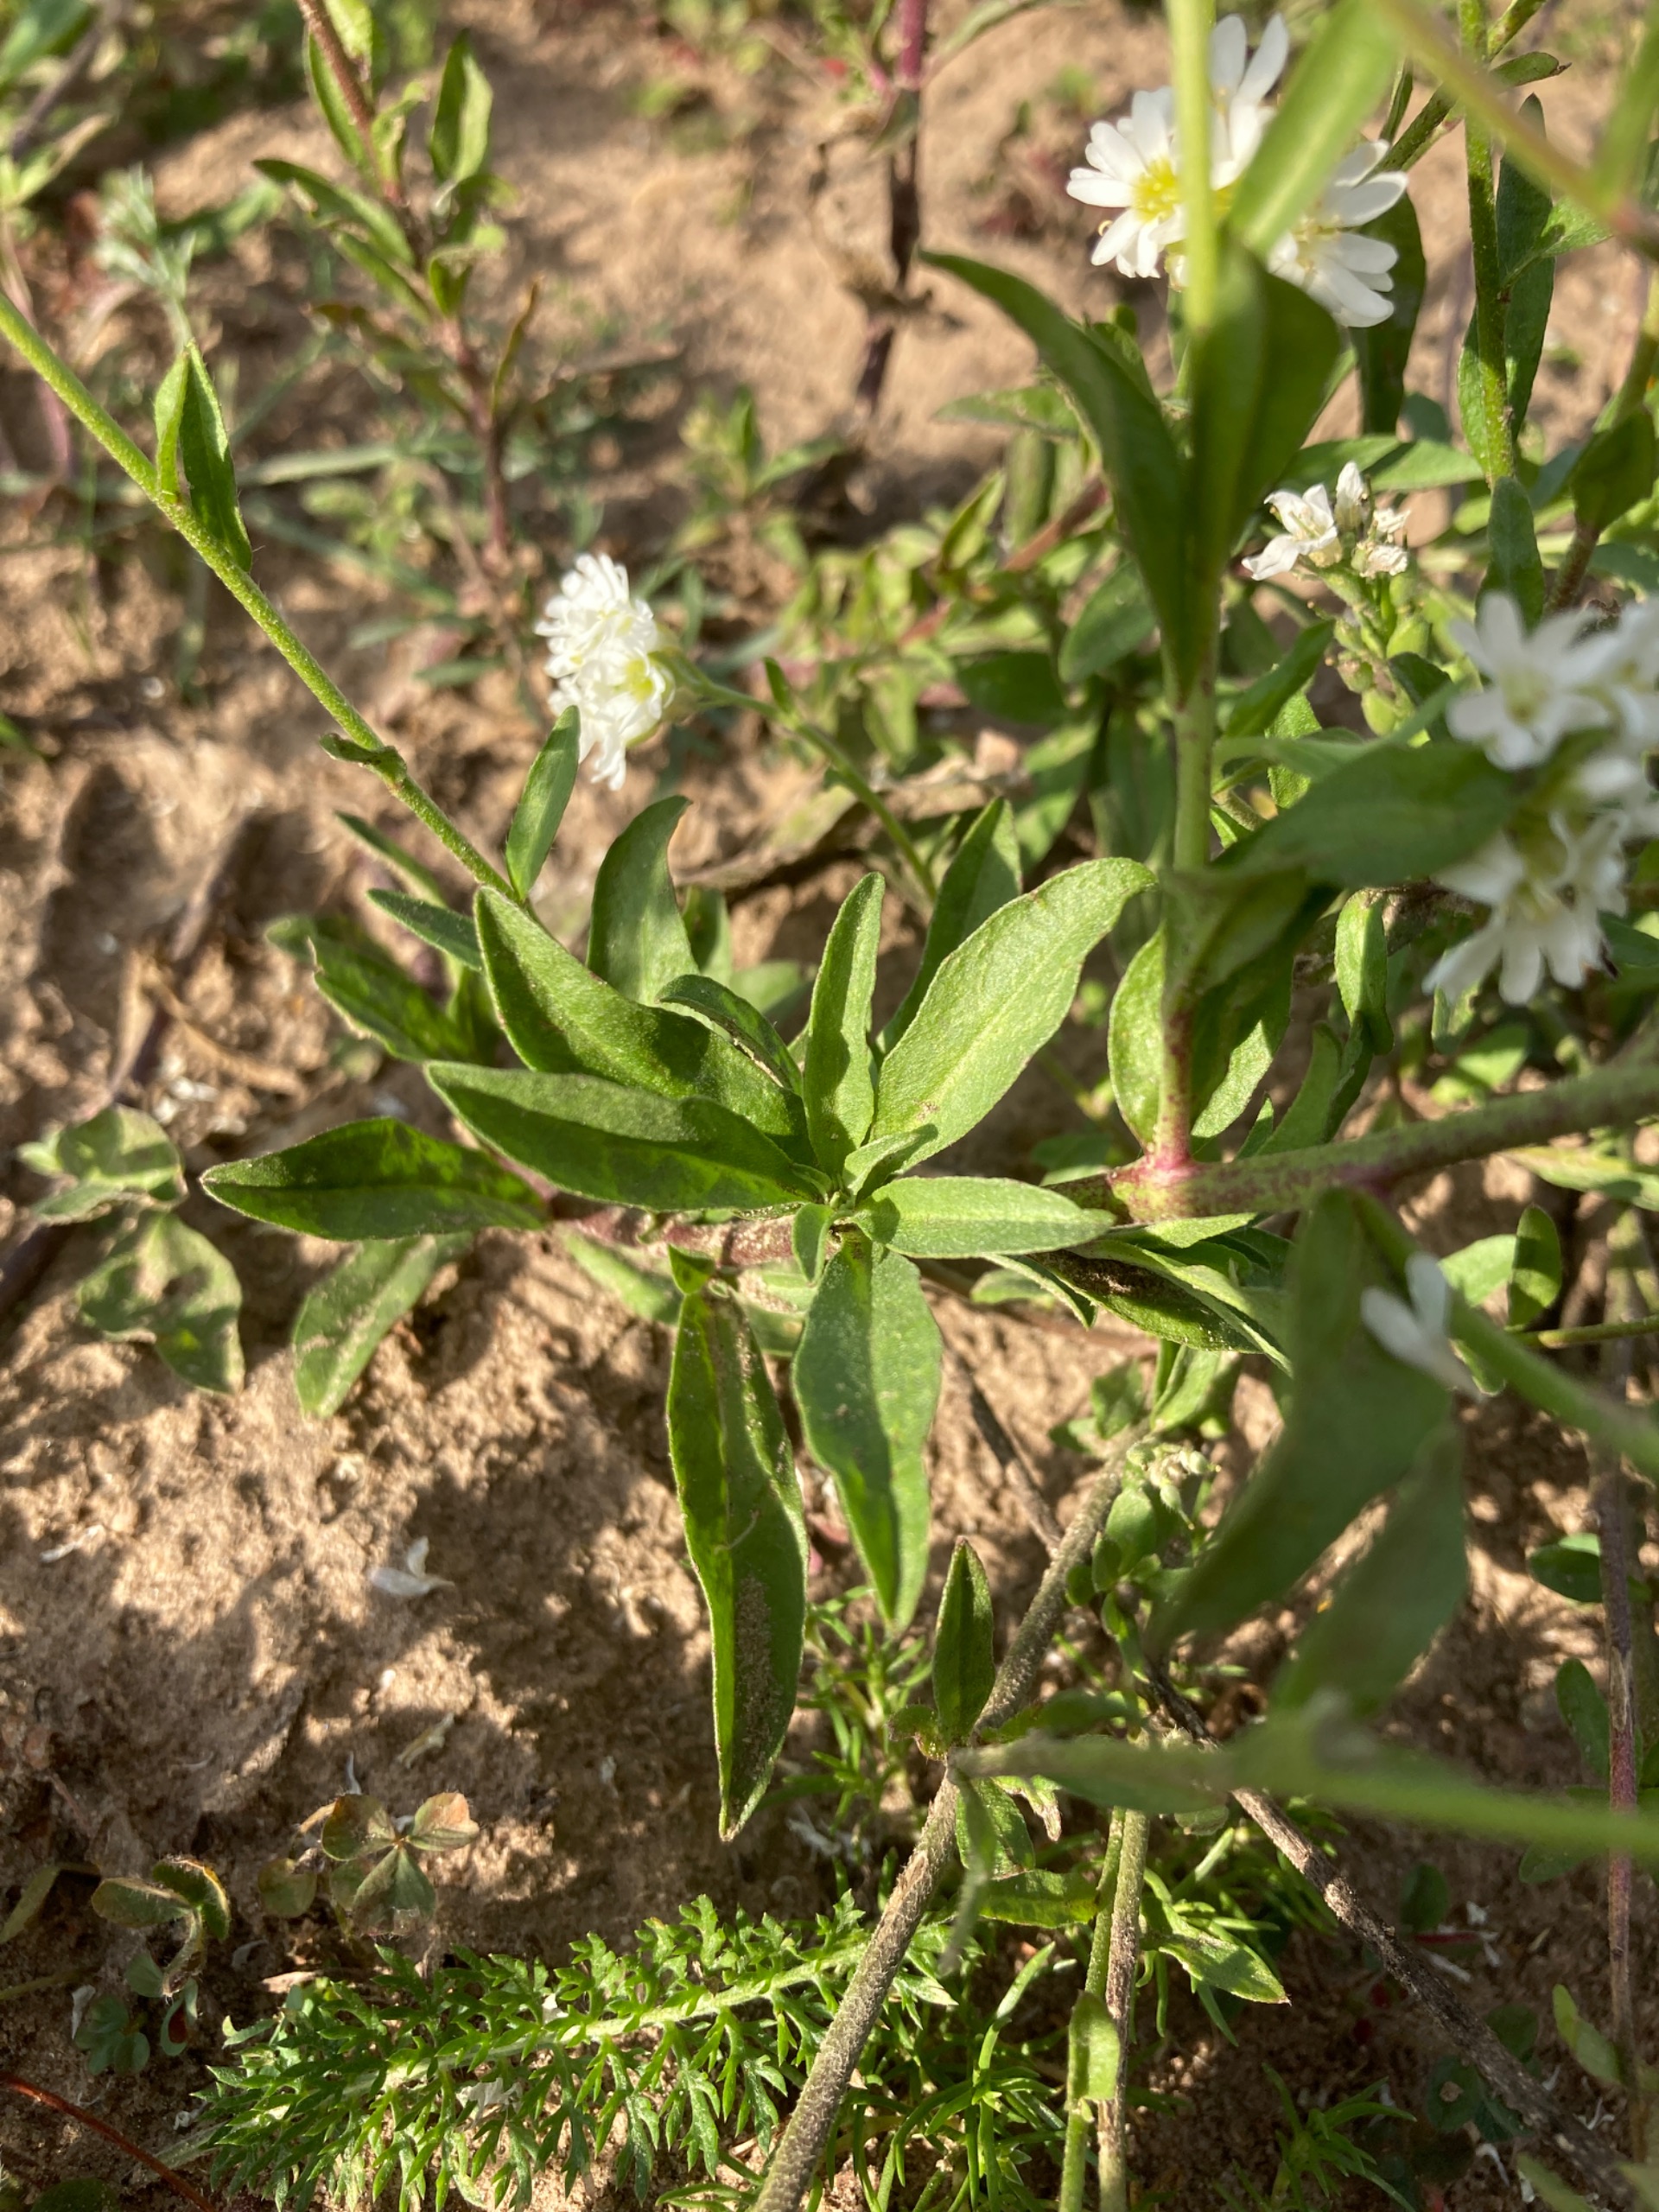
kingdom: Plantae
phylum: Tracheophyta
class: Magnoliopsida
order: Brassicales
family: Brassicaceae
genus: Berteroa
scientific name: Berteroa incana
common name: Kløvplade
